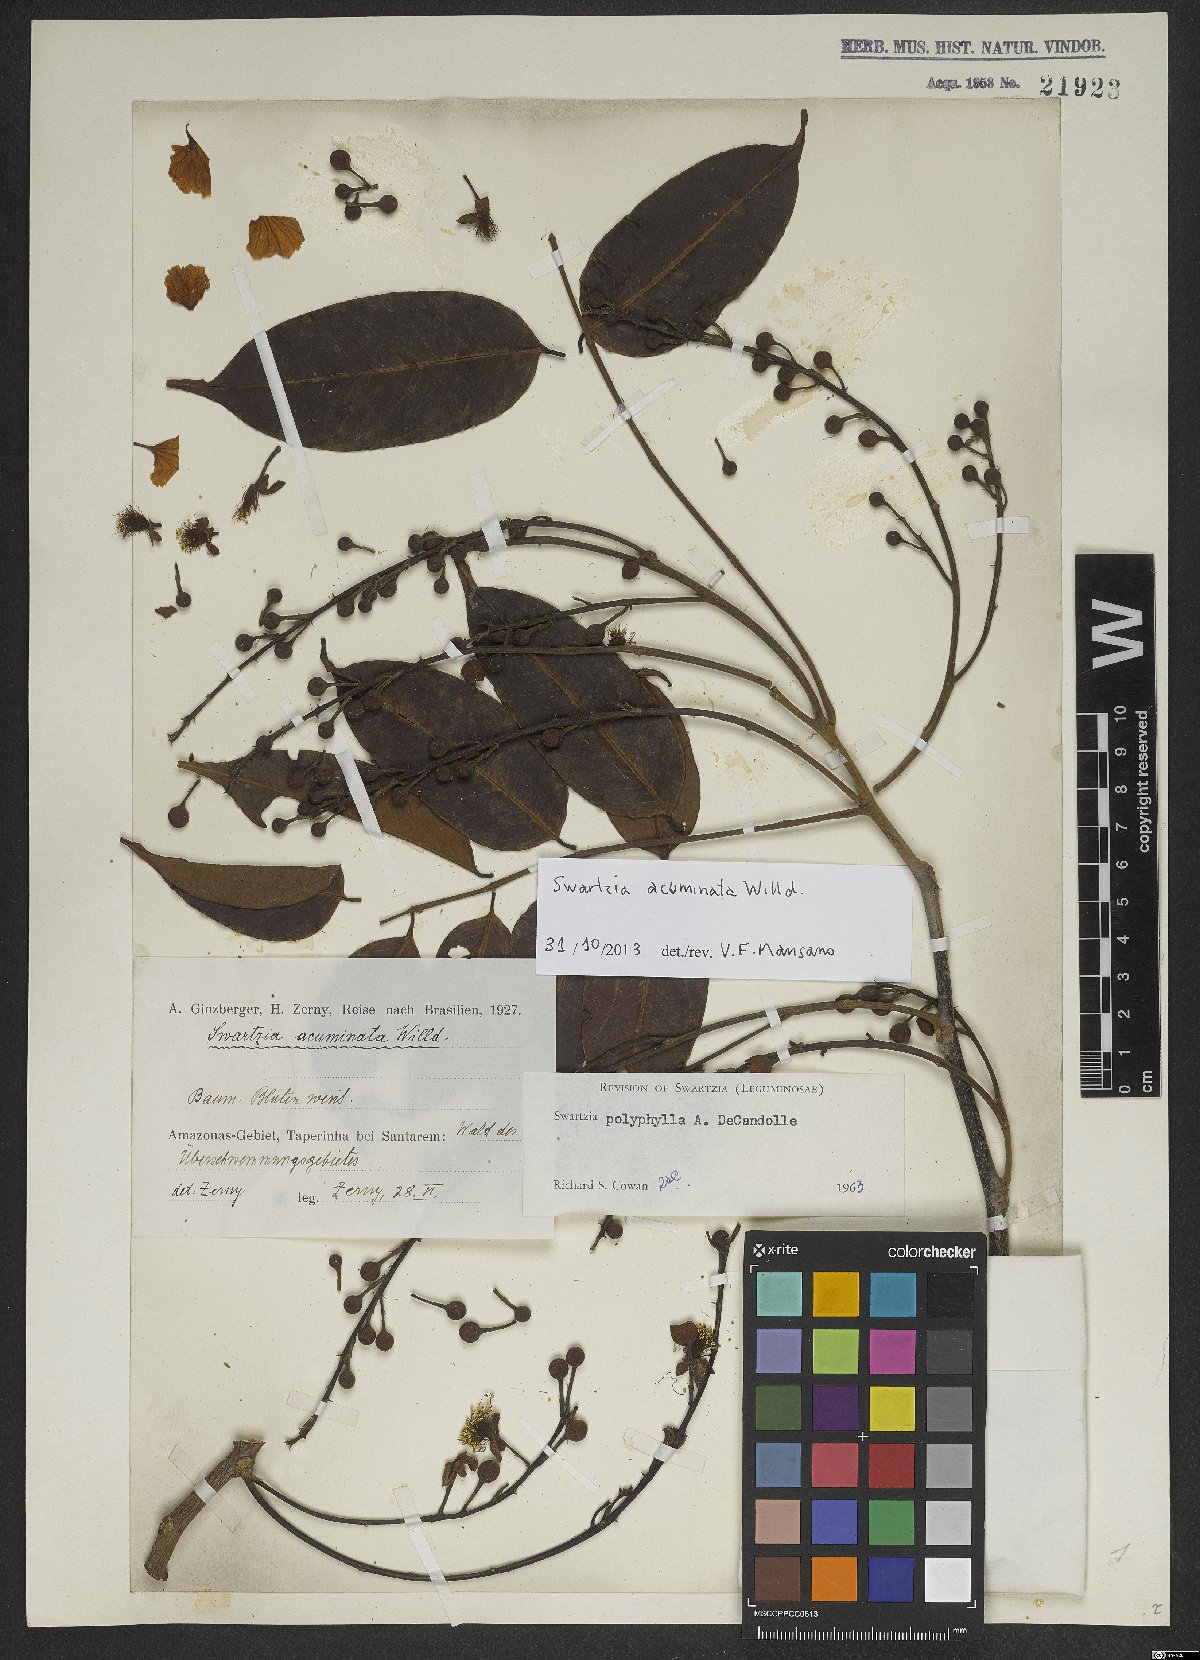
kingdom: Plantae
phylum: Tracheophyta
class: Magnoliopsida
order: Fabales
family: Fabaceae
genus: Swartzia
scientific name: Swartzia acuminata
